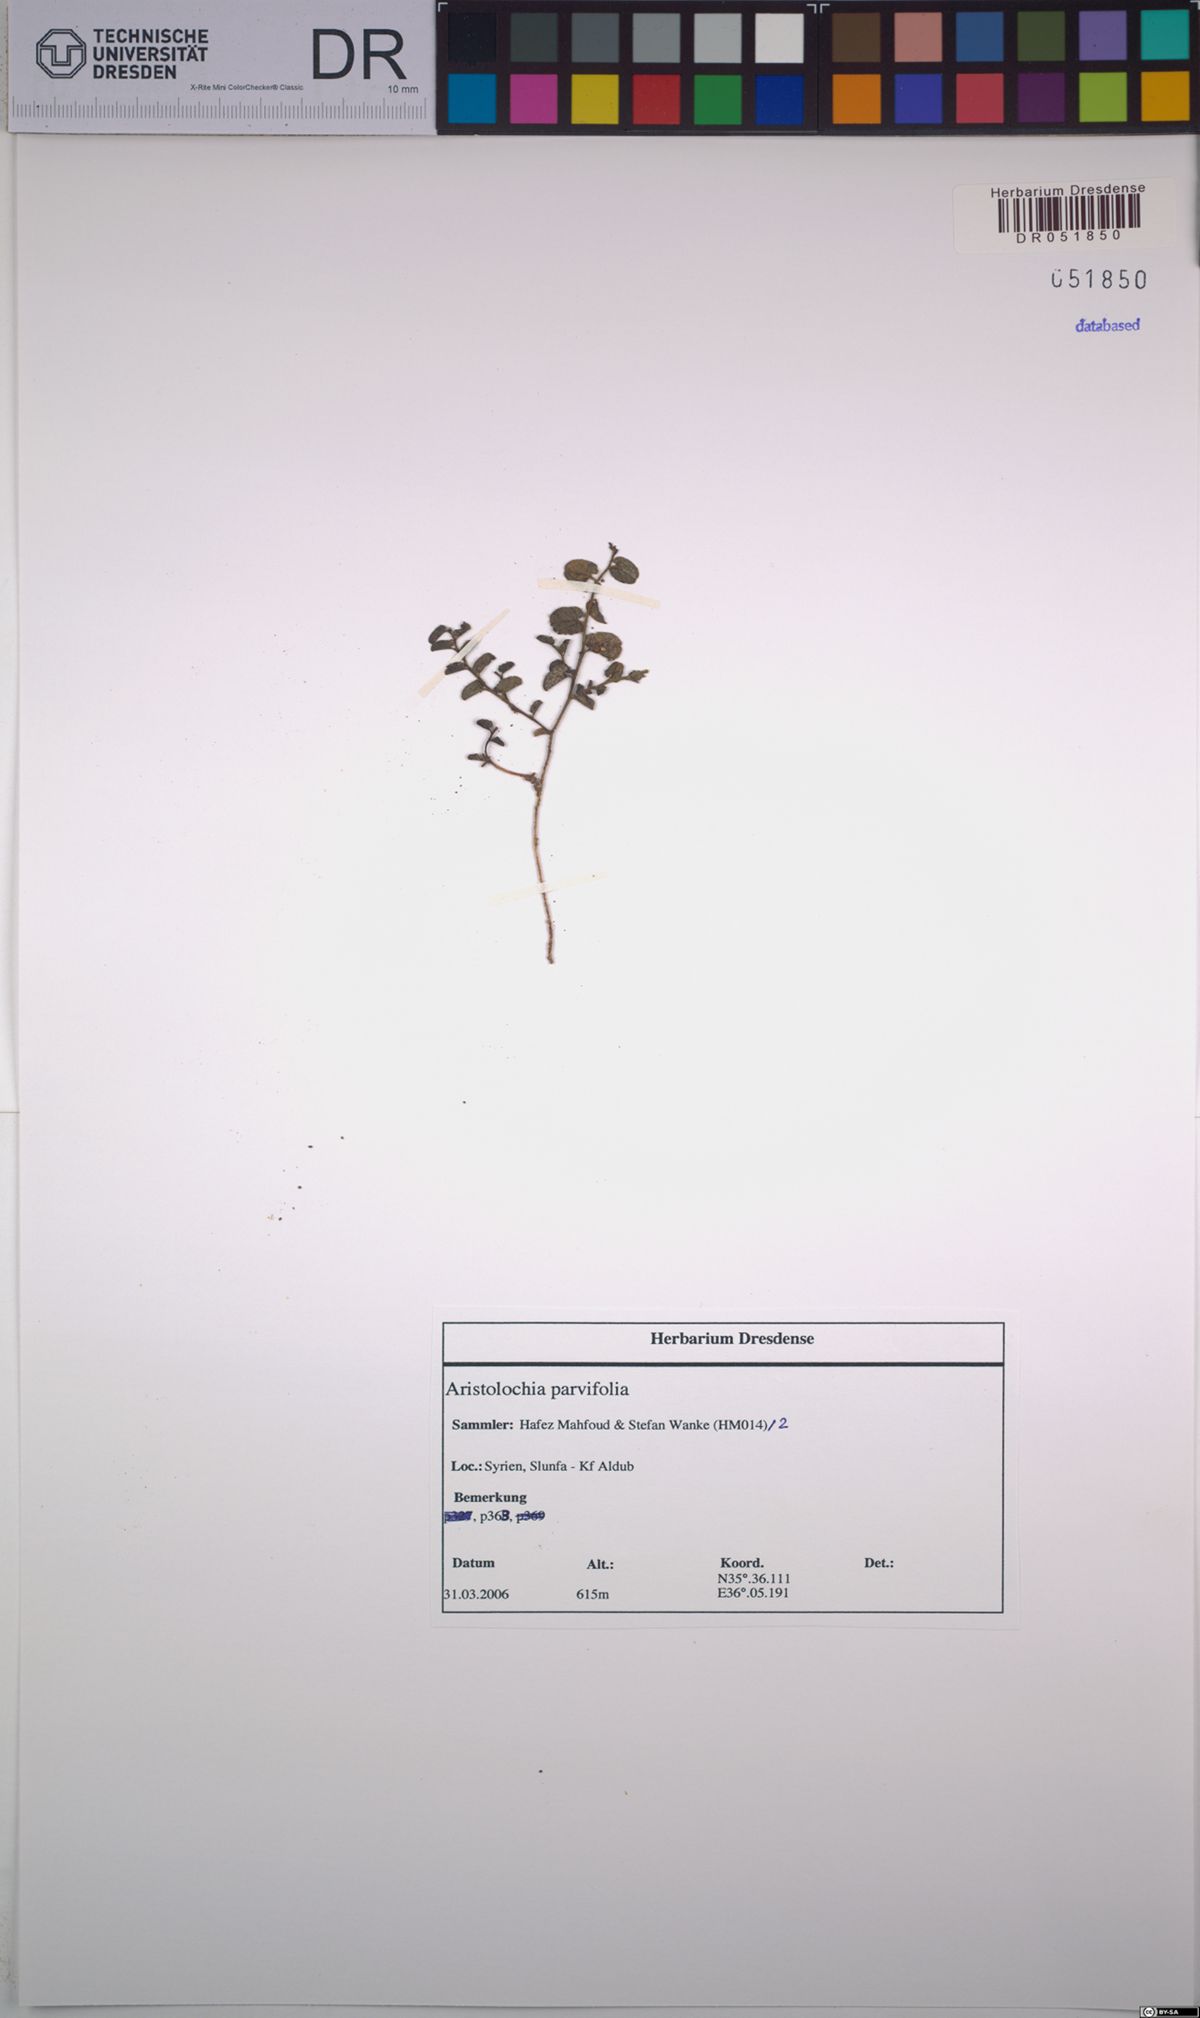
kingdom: Plantae
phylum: Tracheophyta
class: Magnoliopsida
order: Piperales
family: Aristolochiaceae
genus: Aristolochia
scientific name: Aristolochia parvifolia
